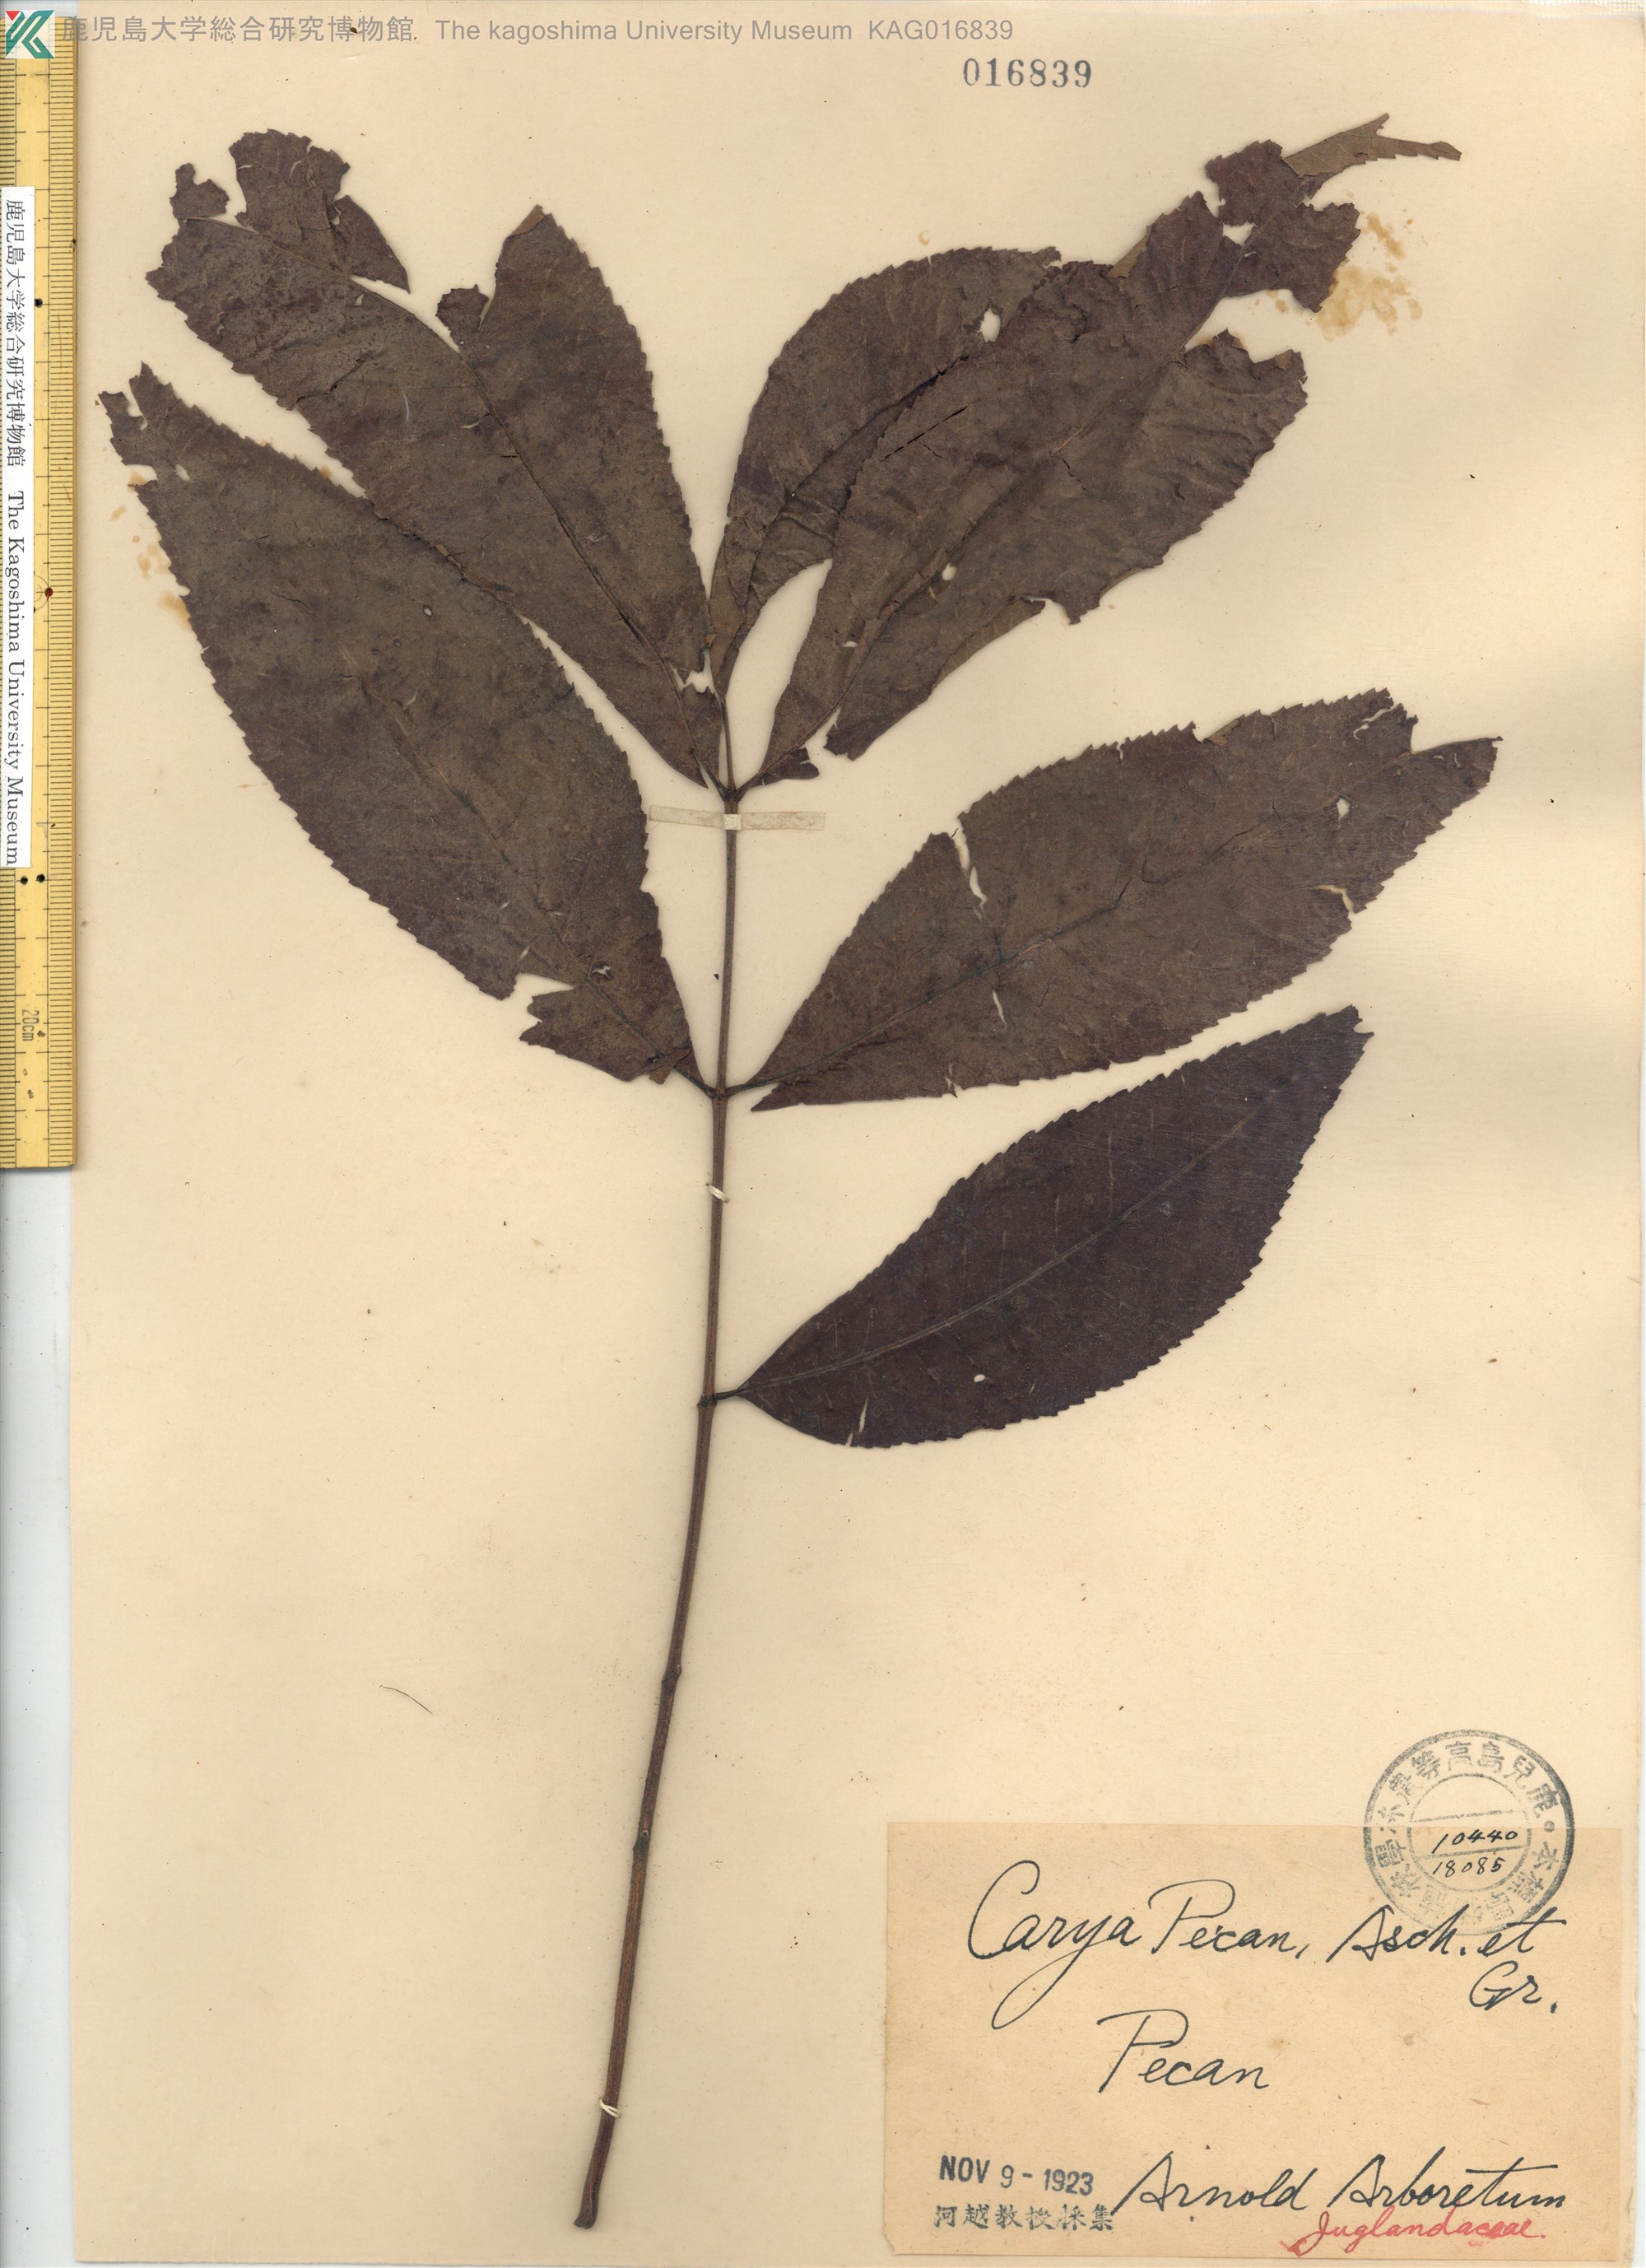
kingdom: Plantae
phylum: Tracheophyta
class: Magnoliopsida
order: Fagales
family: Juglandaceae
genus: Carya
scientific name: Carya illinoinensis
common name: Pecan
